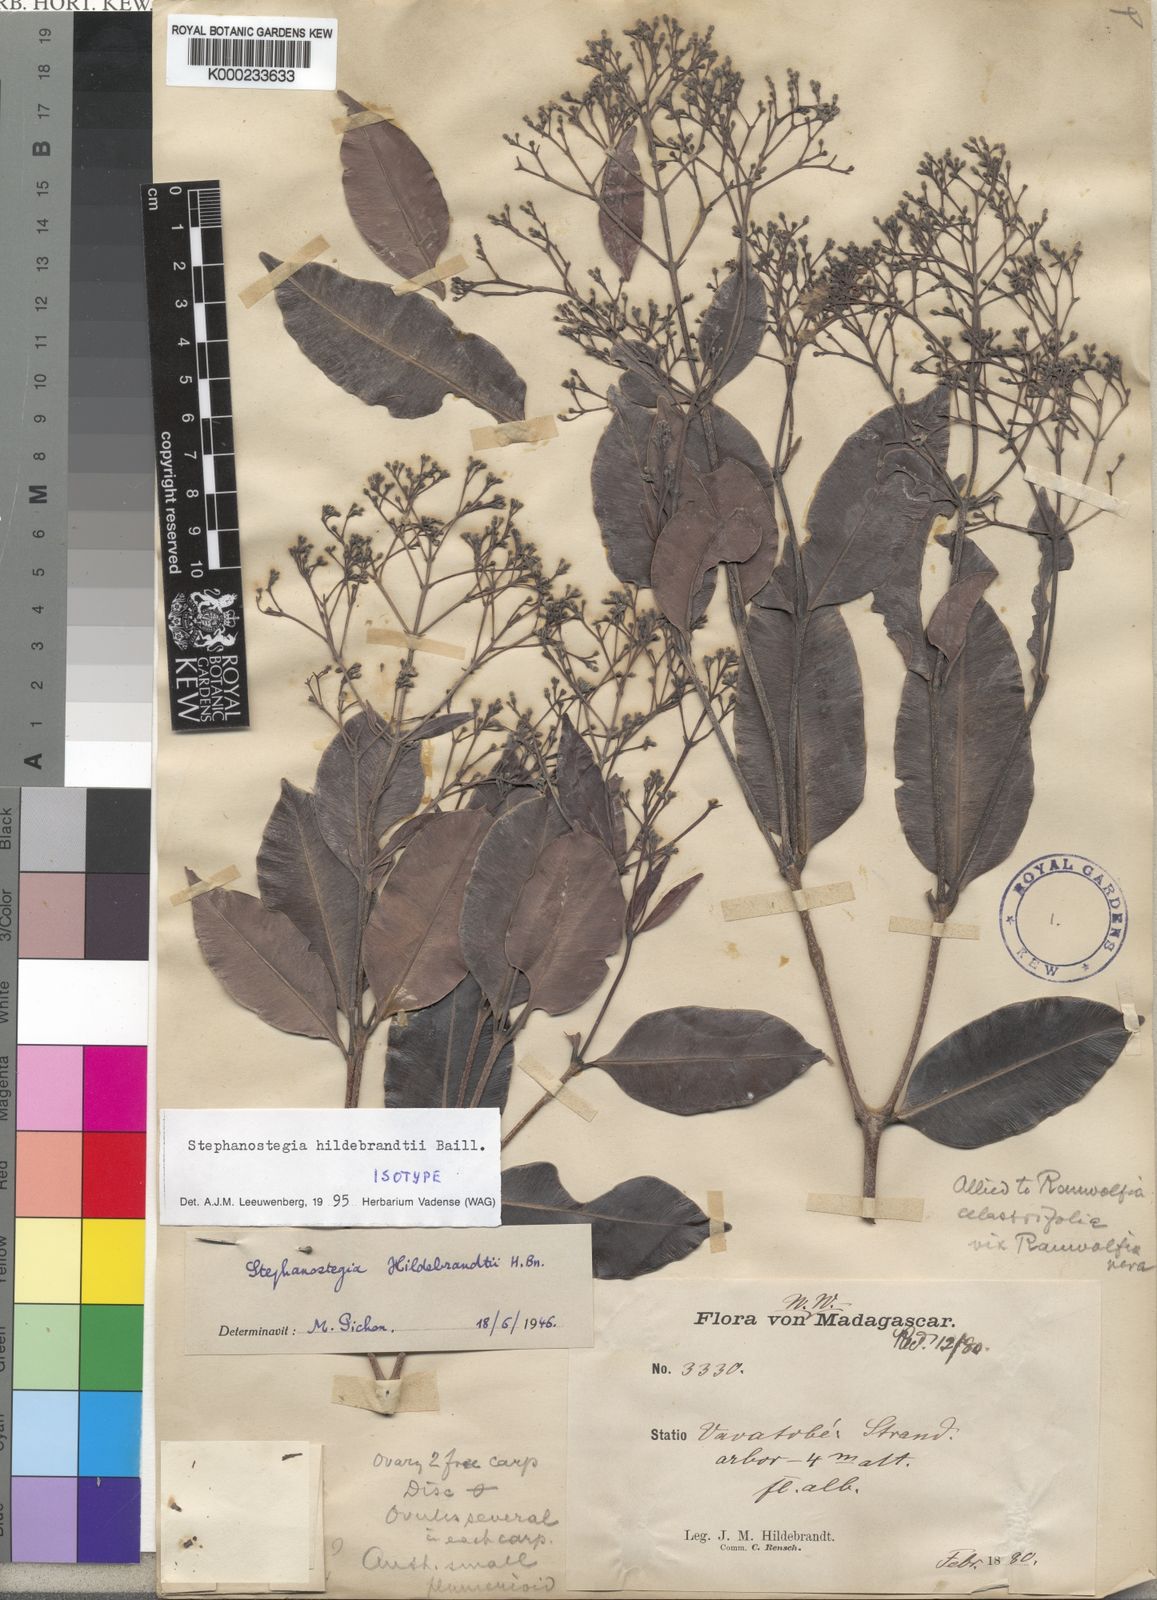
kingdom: Plantae
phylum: Tracheophyta
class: Magnoliopsida
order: Gentianales
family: Apocynaceae
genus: Stephanostegia
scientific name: Stephanostegia hildebrandtii
